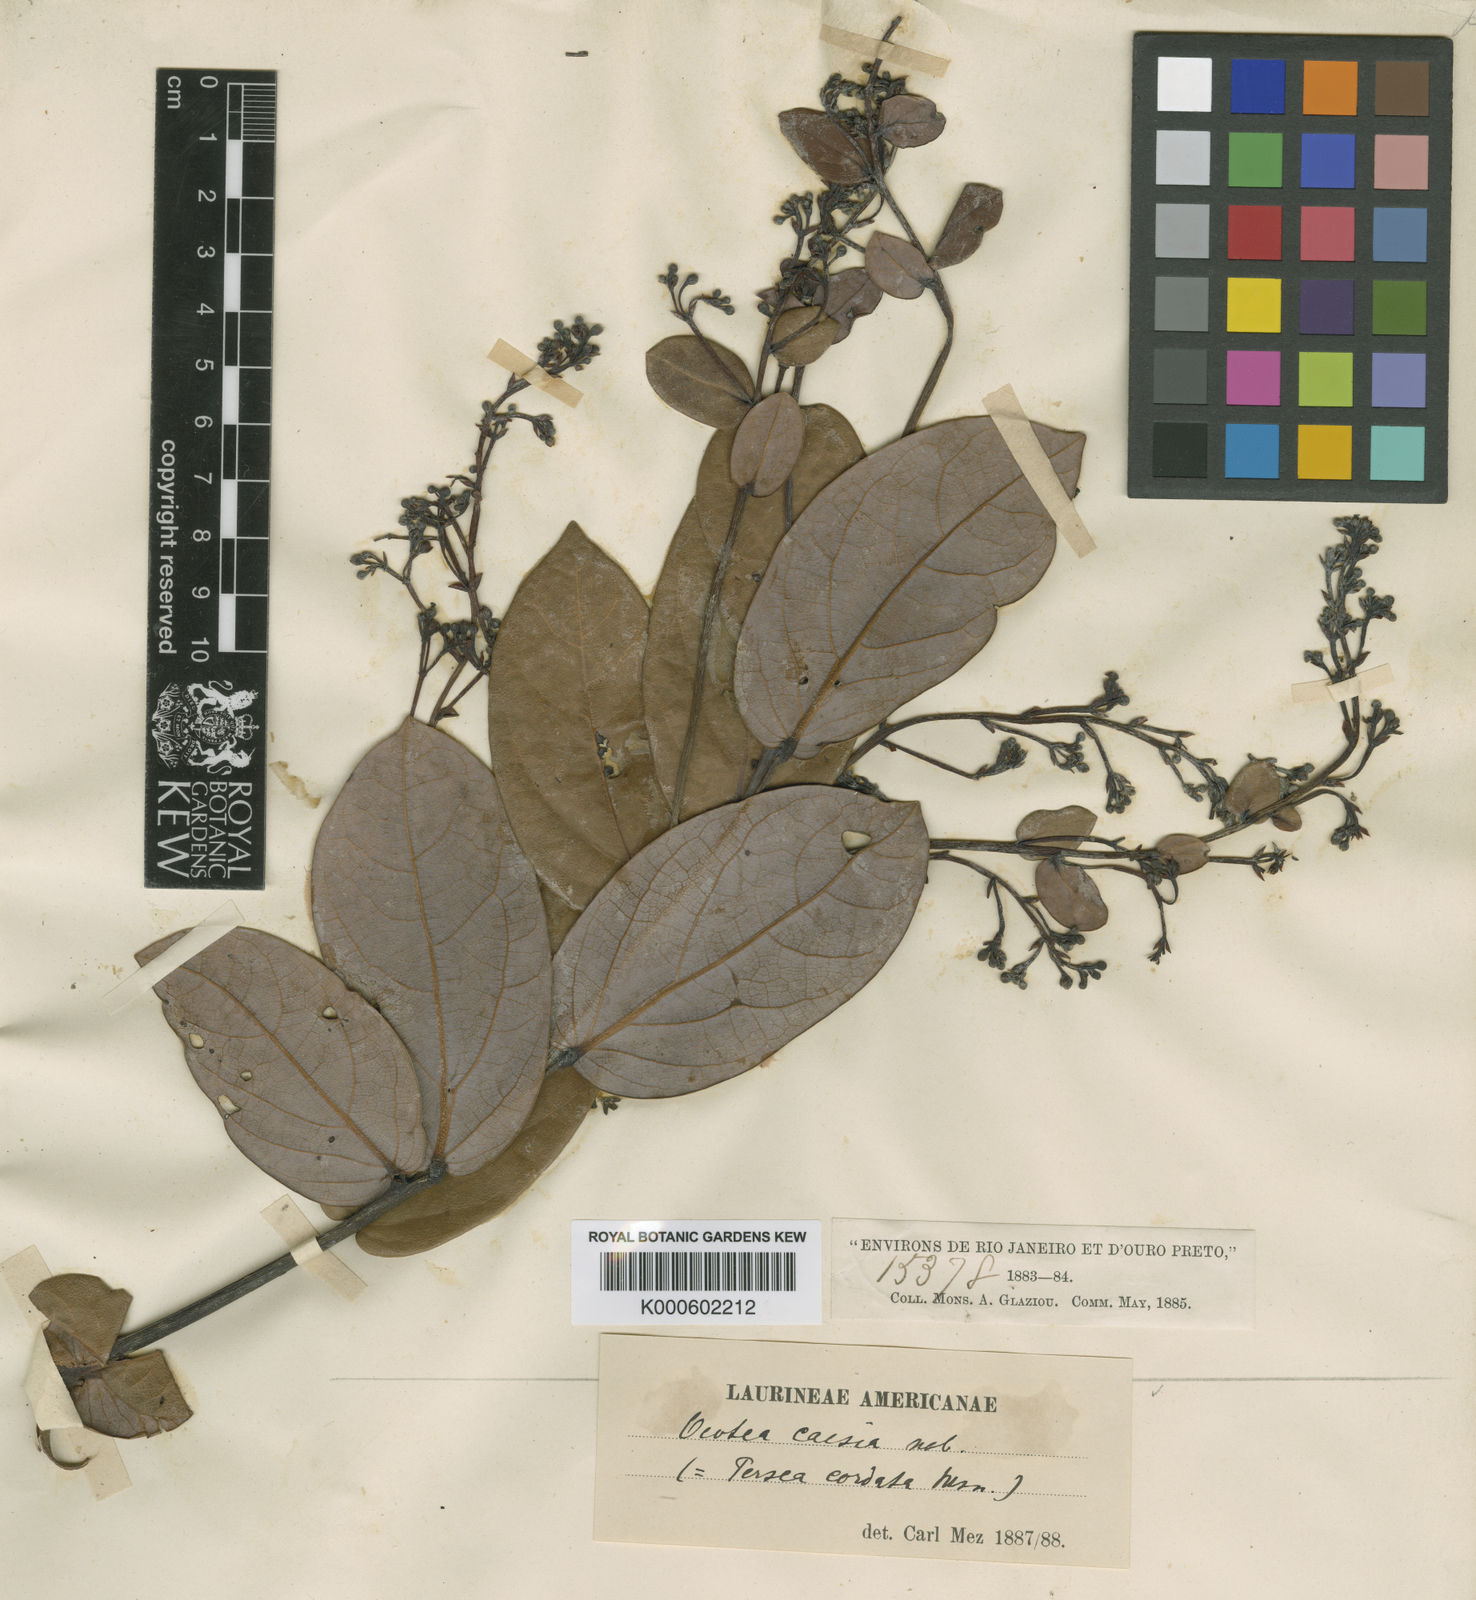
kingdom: Plantae
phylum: Tracheophyta
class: Magnoliopsida
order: Laurales
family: Lauraceae
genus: Ocotea
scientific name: Ocotea caesia
